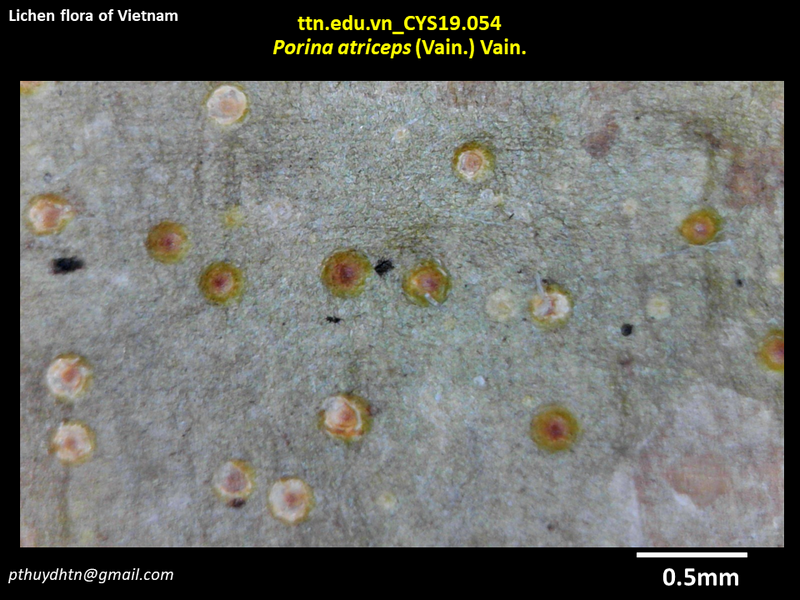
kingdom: Fungi
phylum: Ascomycota
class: Lecanoromycetes
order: Pertusariales
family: Pertusariaceae
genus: Porina
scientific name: Porina atriceps
